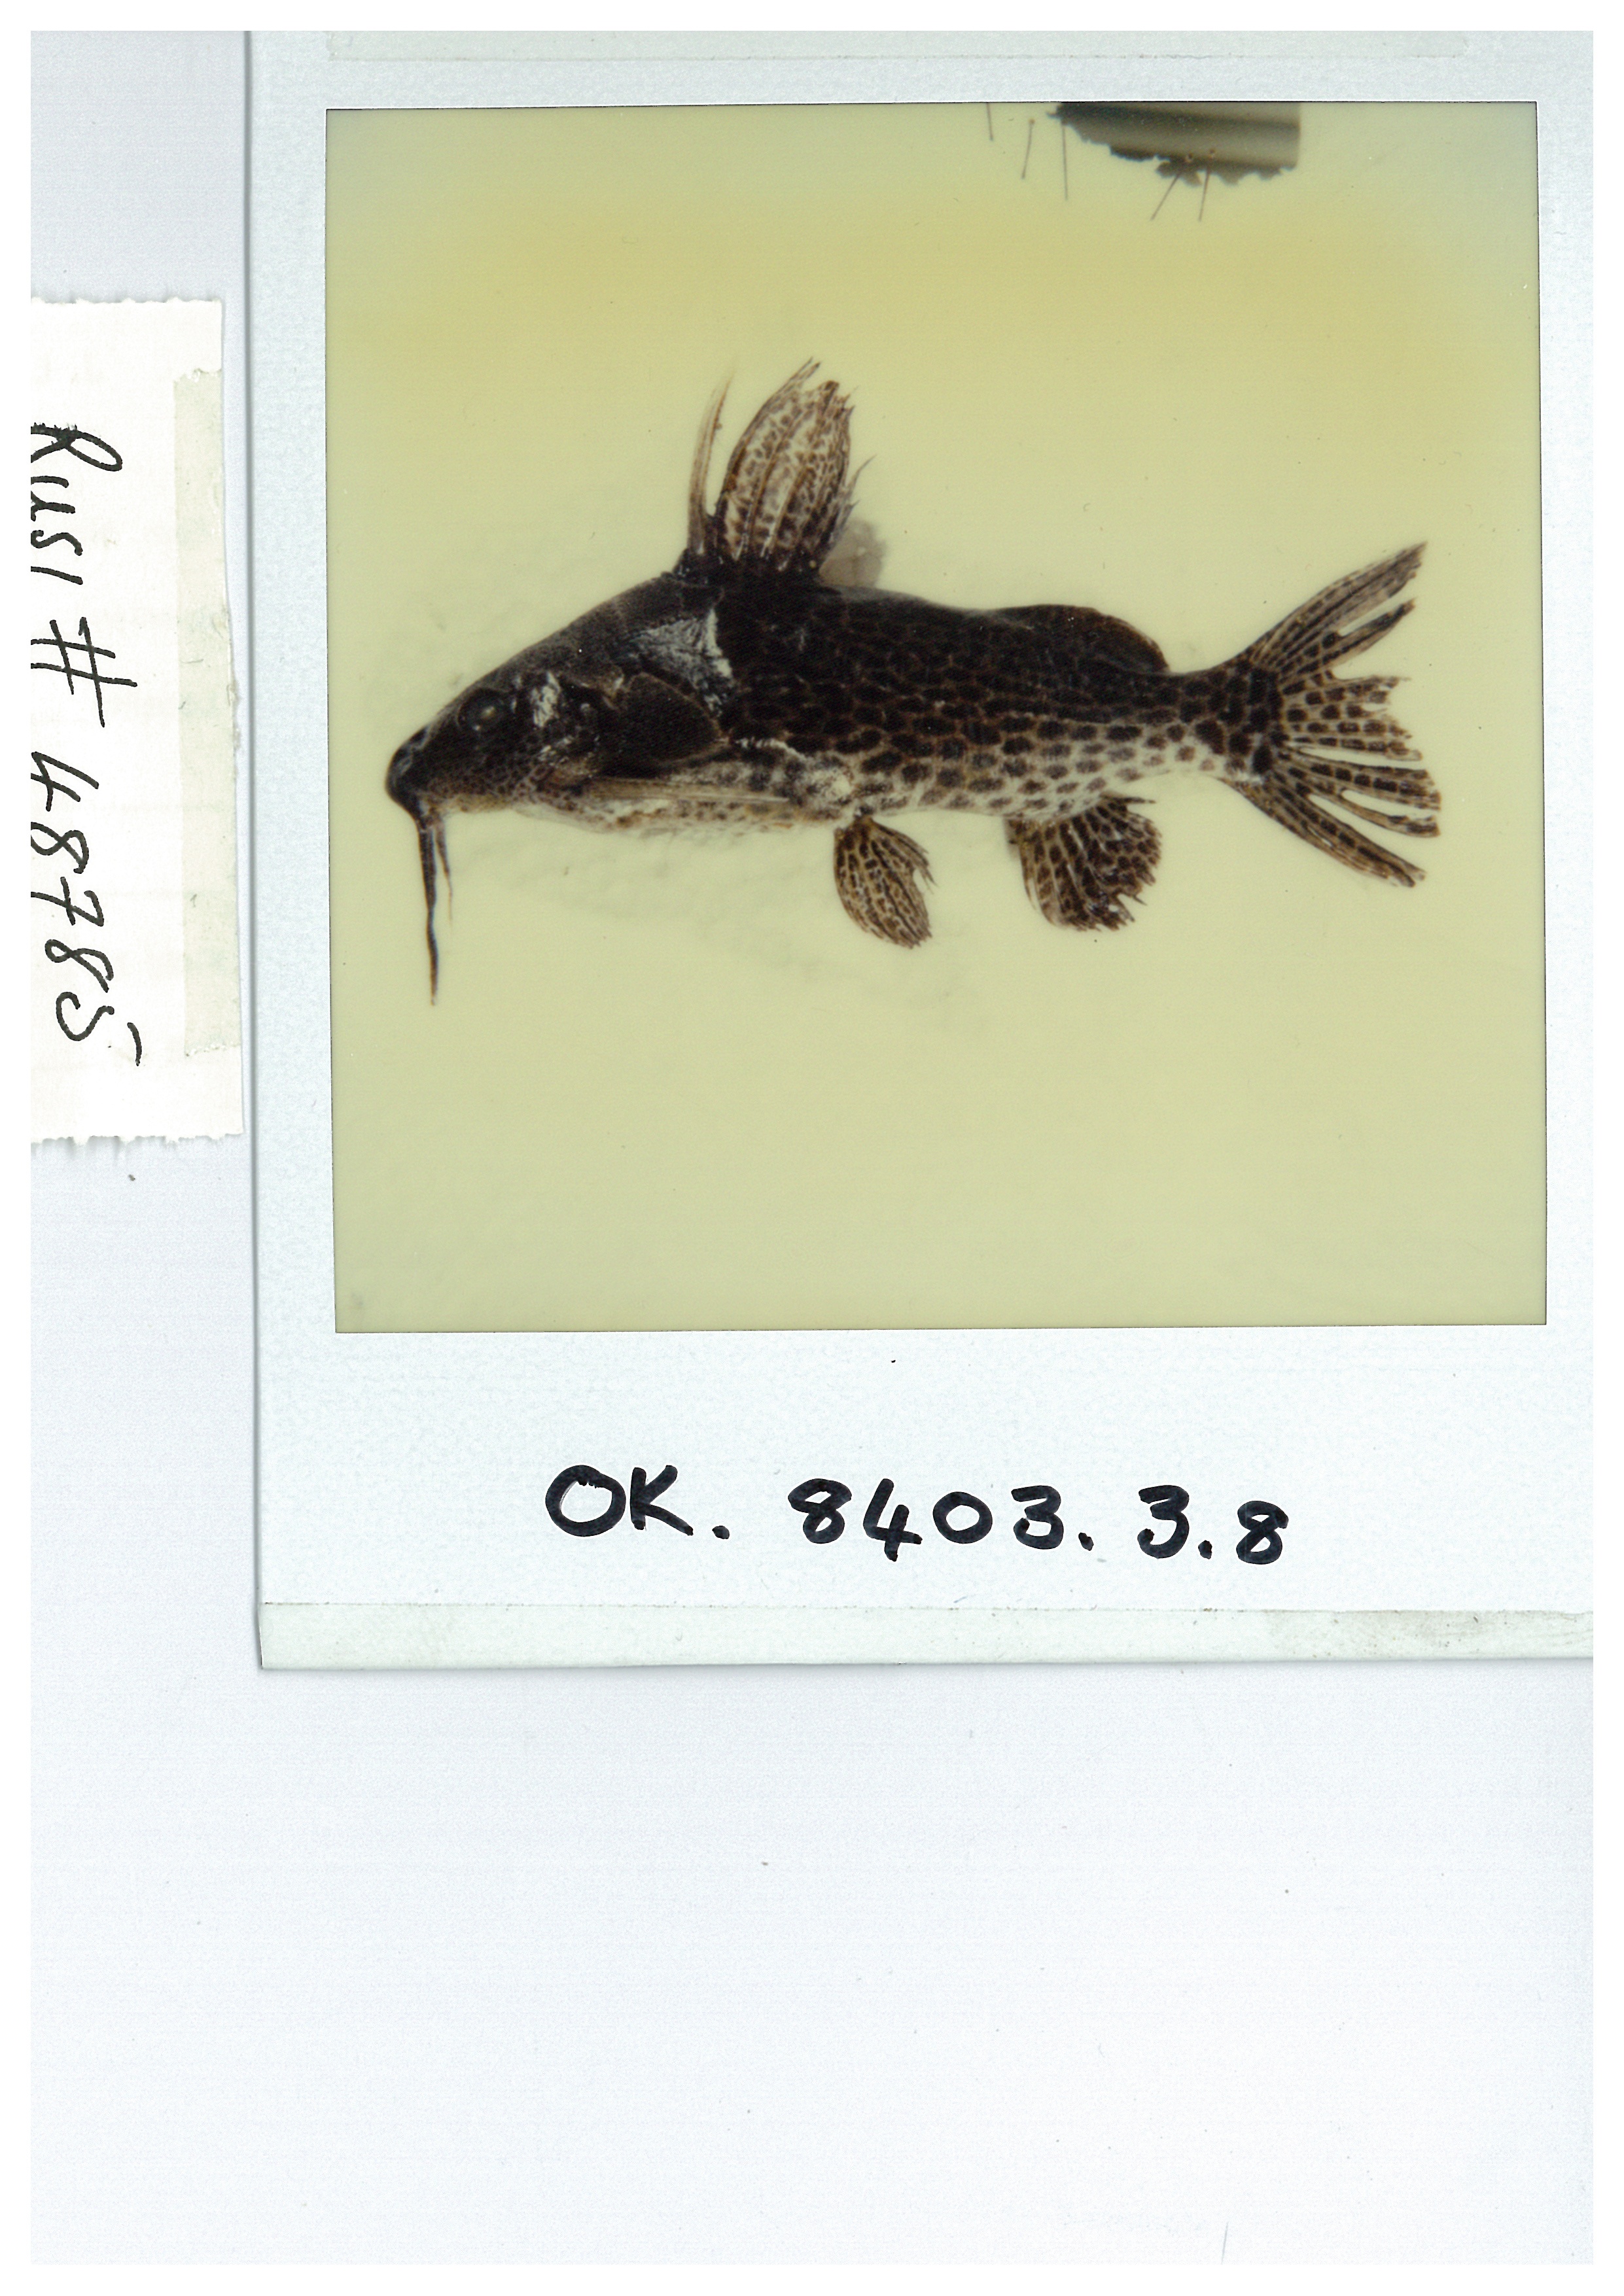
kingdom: Animalia
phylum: Chordata
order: Siluriformes
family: Mochokidae
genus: Synodontis
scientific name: Synodontis macrostigma
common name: Largespot squeaker
